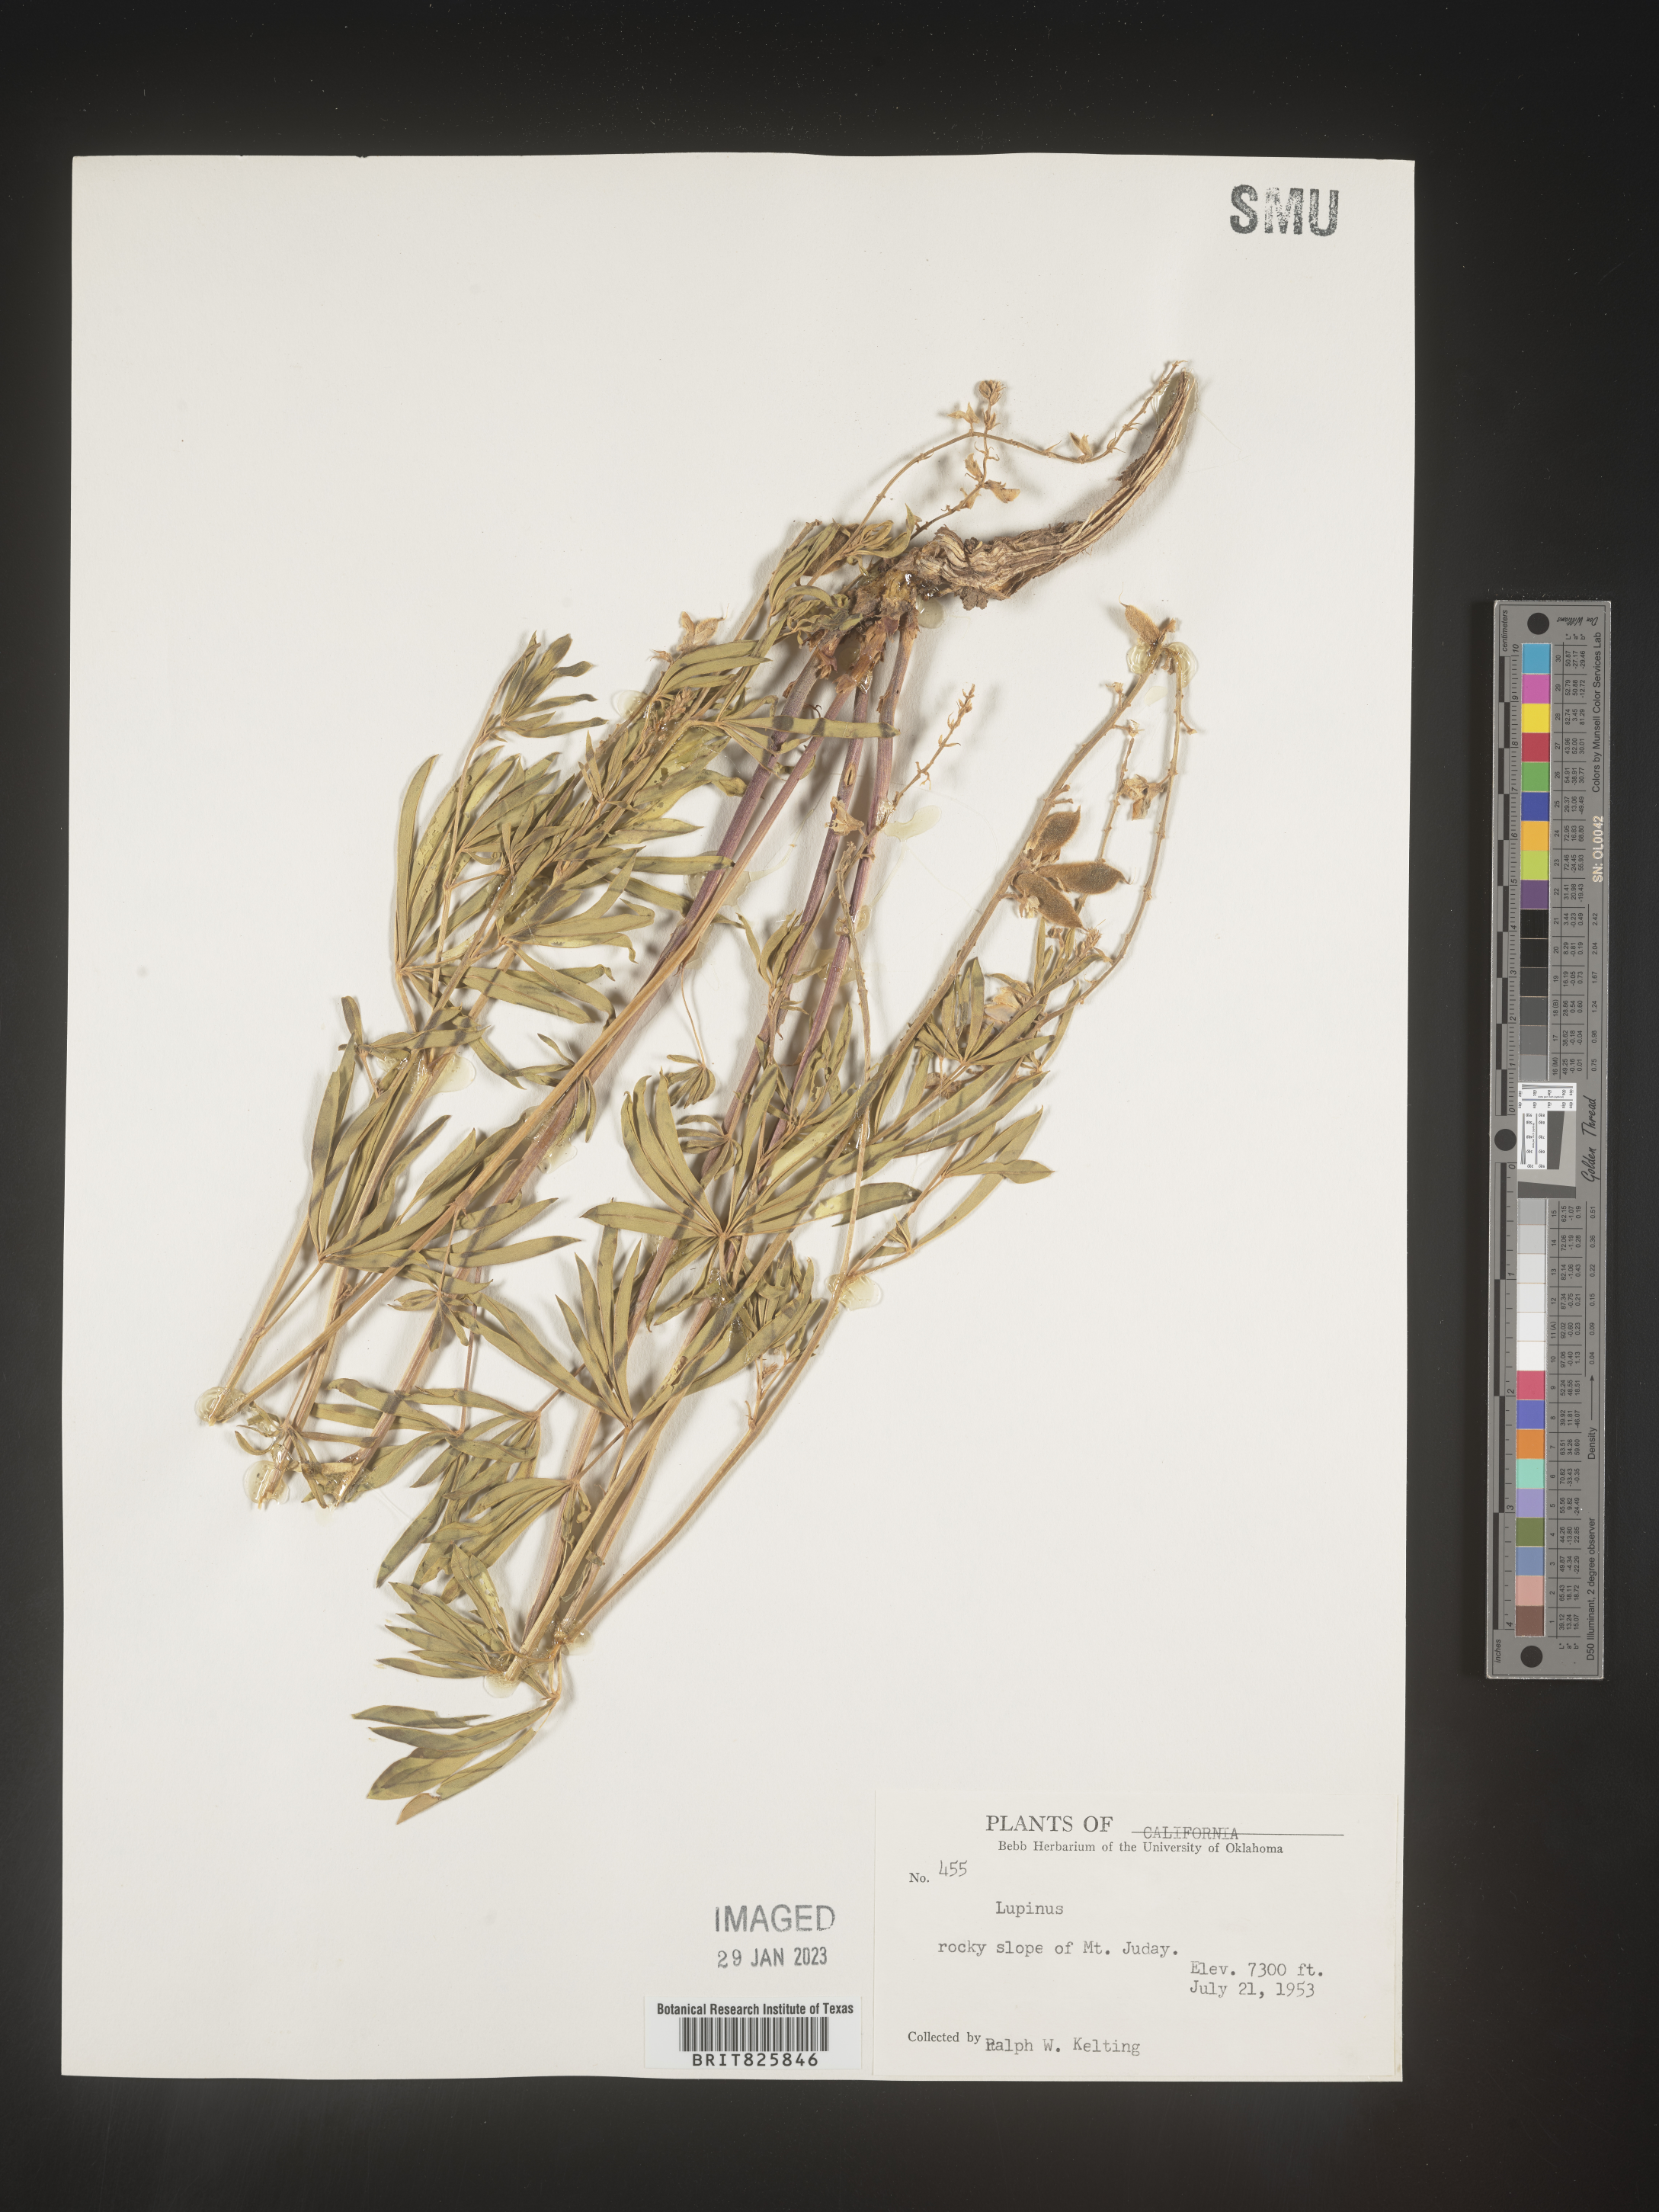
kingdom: Plantae
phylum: Tracheophyta
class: Magnoliopsida
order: Fabales
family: Fabaceae
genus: Lupinus
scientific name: Lupinus
